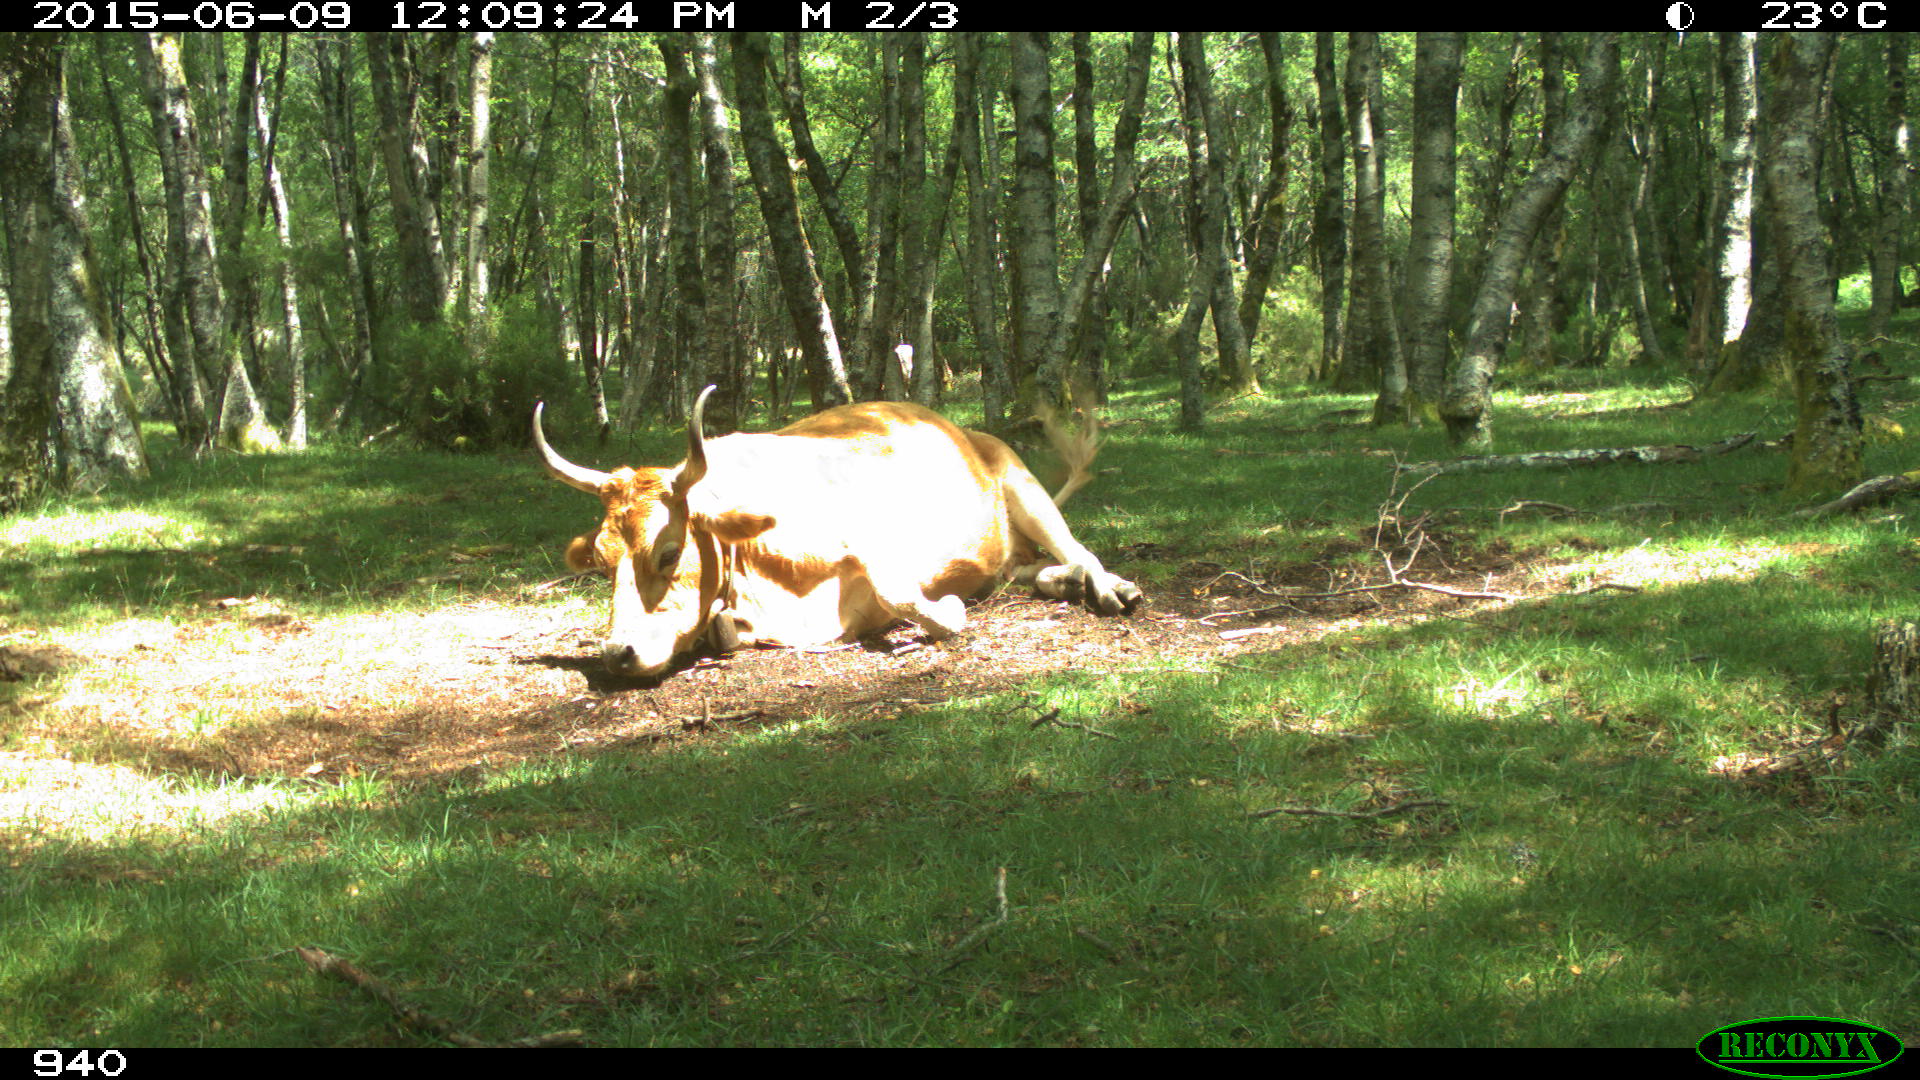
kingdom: Animalia
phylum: Chordata
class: Mammalia
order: Artiodactyla
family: Bovidae
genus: Bos
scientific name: Bos taurus
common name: Domesticated cattle
